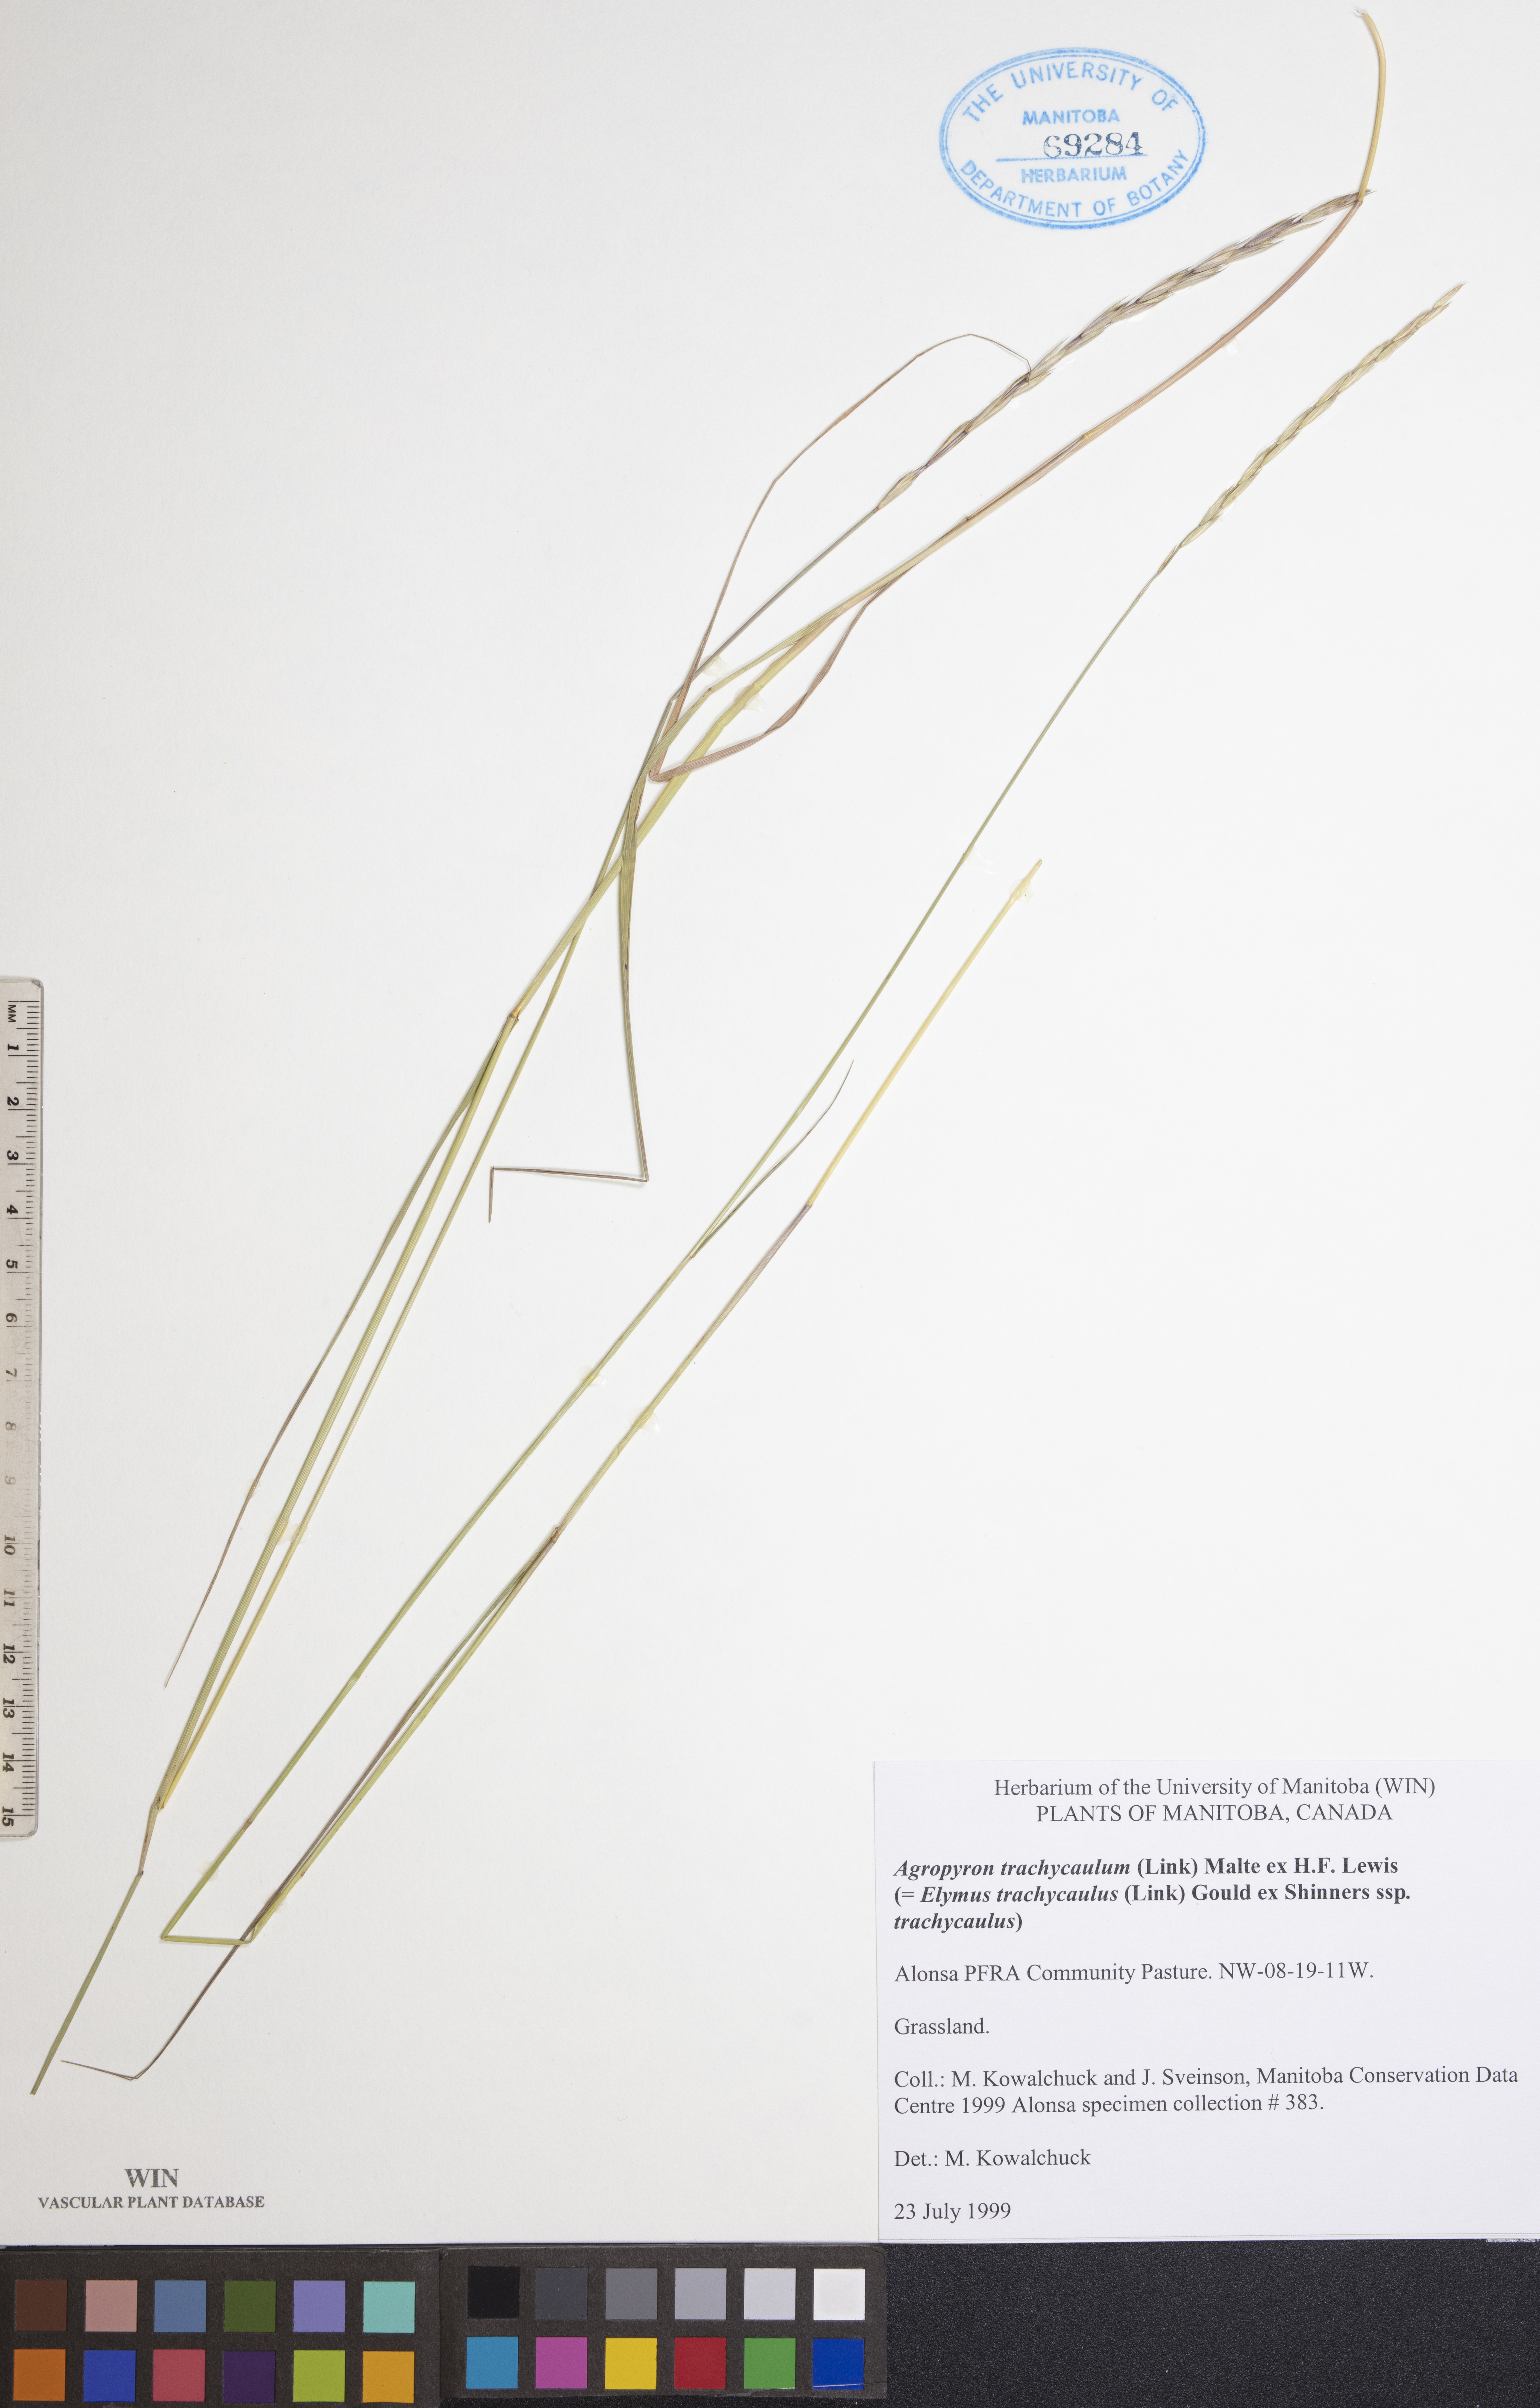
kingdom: Plantae
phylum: Tracheophyta
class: Liliopsida
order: Poales
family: Poaceae
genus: Elymus
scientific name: Elymus violaceus
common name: Arctic wheatgrass
